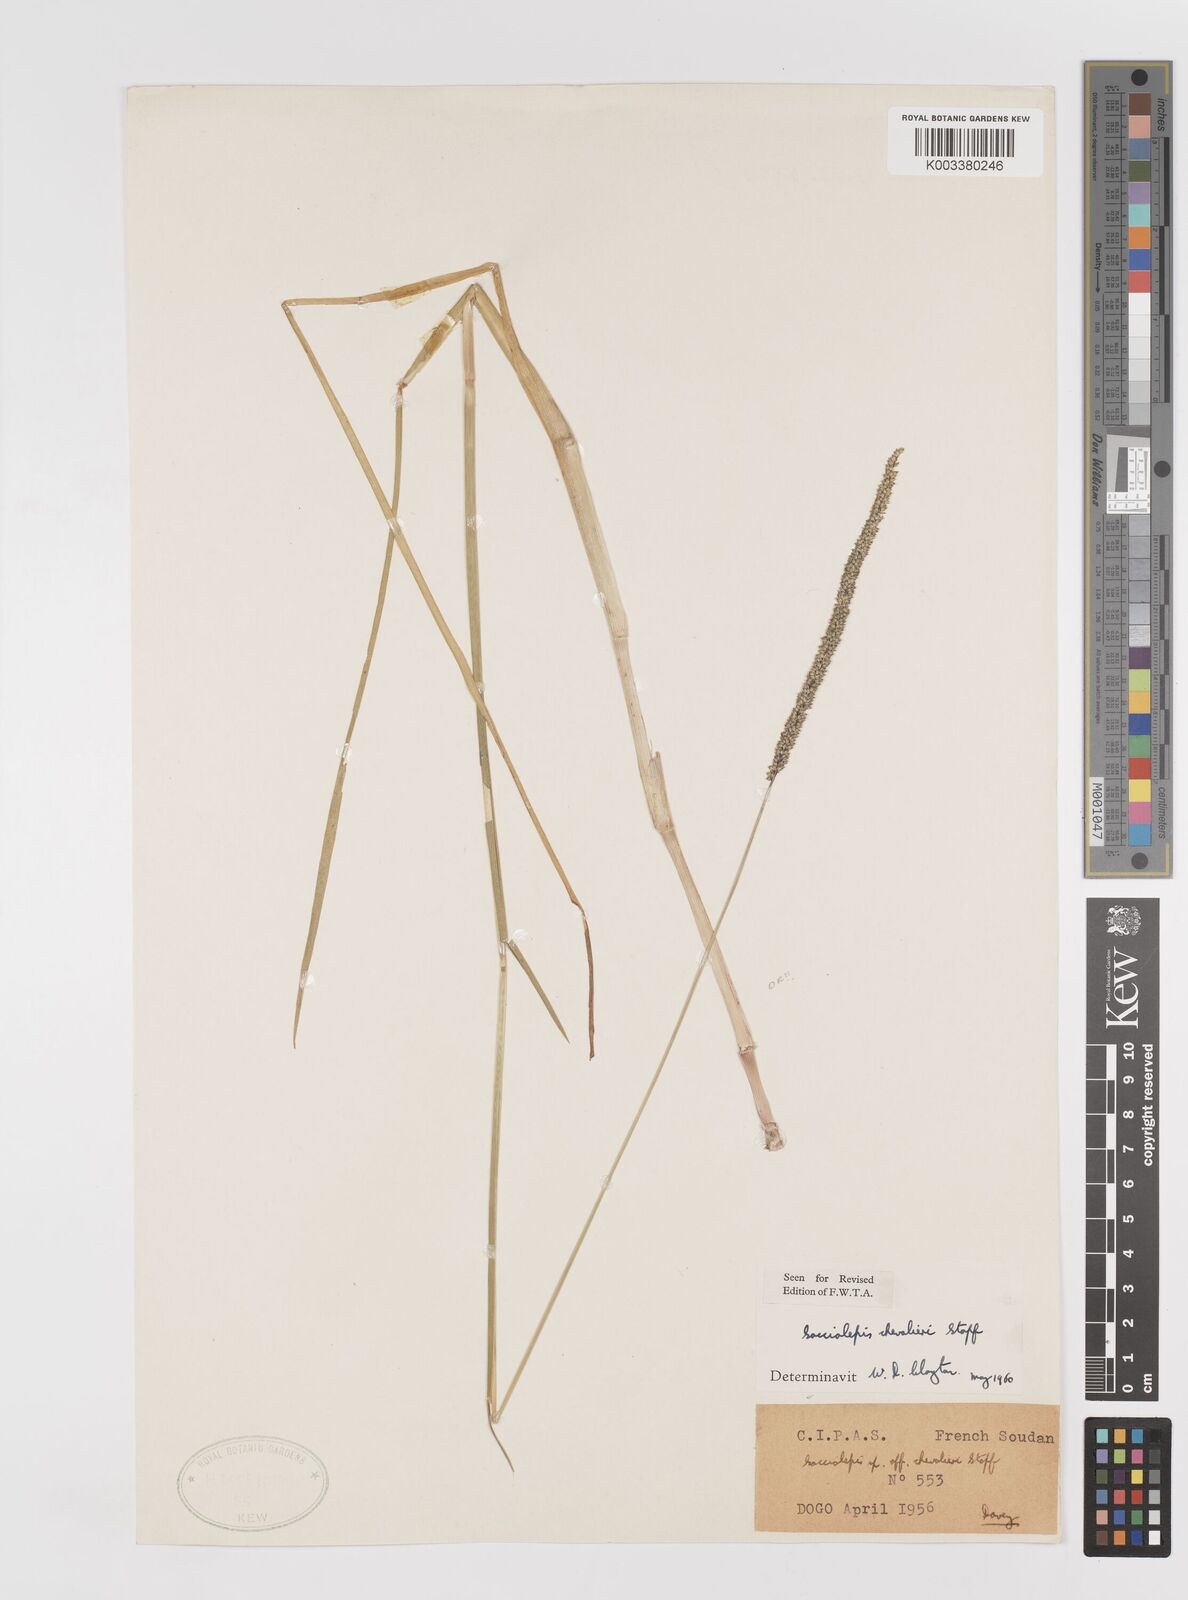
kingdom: Plantae
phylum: Tracheophyta
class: Liliopsida
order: Poales
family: Poaceae
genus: Sacciolepis
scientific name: Sacciolepis chevalieri
